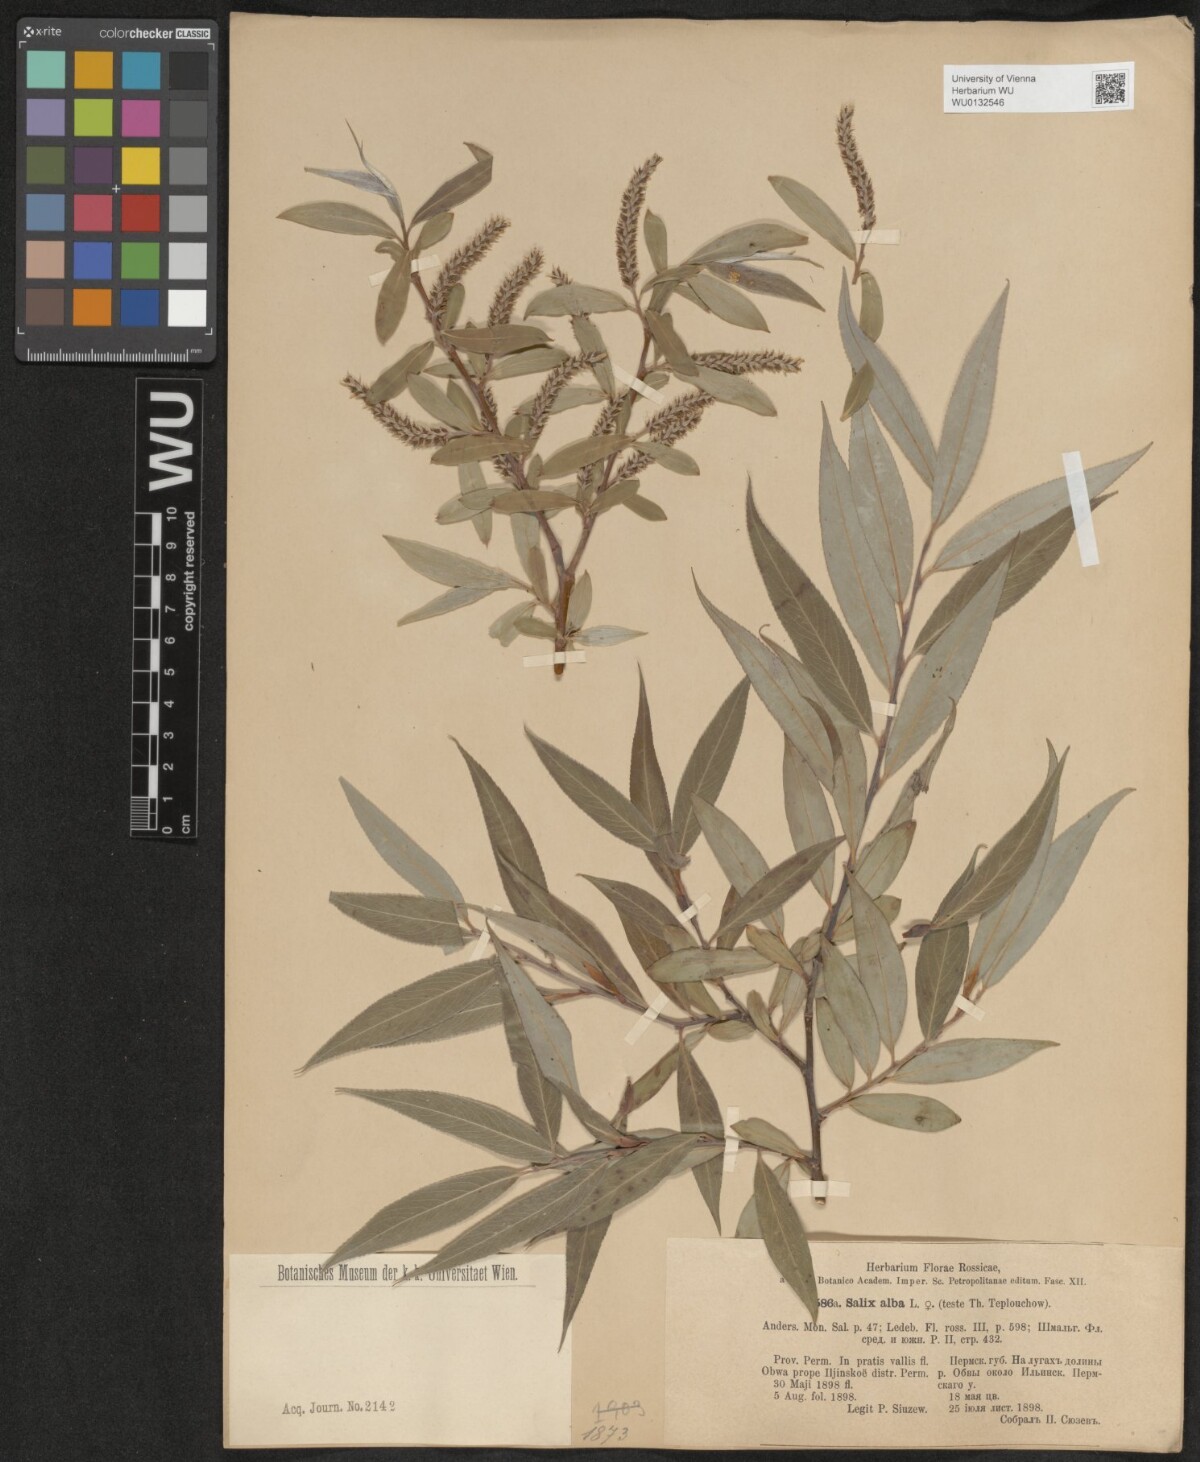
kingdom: Plantae
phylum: Tracheophyta
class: Magnoliopsida
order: Malpighiales
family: Salicaceae
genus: Salix
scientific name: Salix alba
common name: White willow
